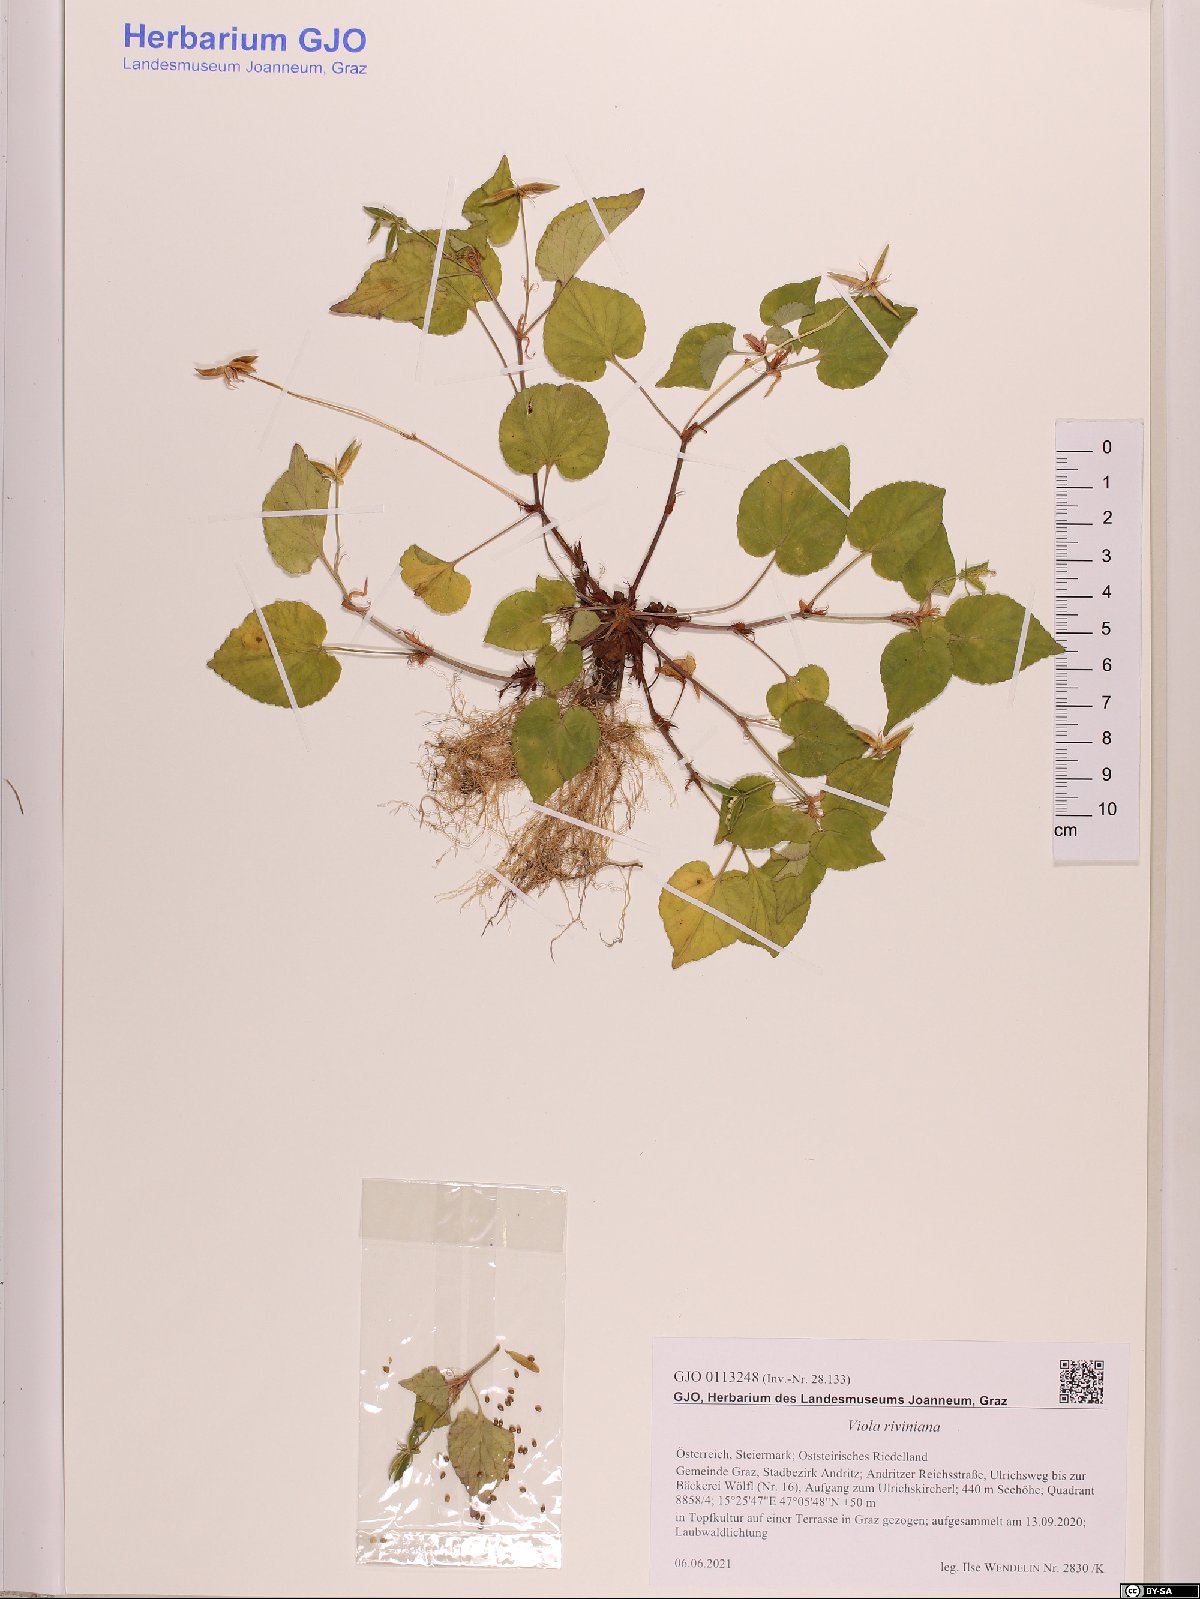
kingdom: Plantae
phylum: Tracheophyta
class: Magnoliopsida
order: Malpighiales
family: Violaceae
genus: Viola
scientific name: Viola riviniana
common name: Common dog-violet
